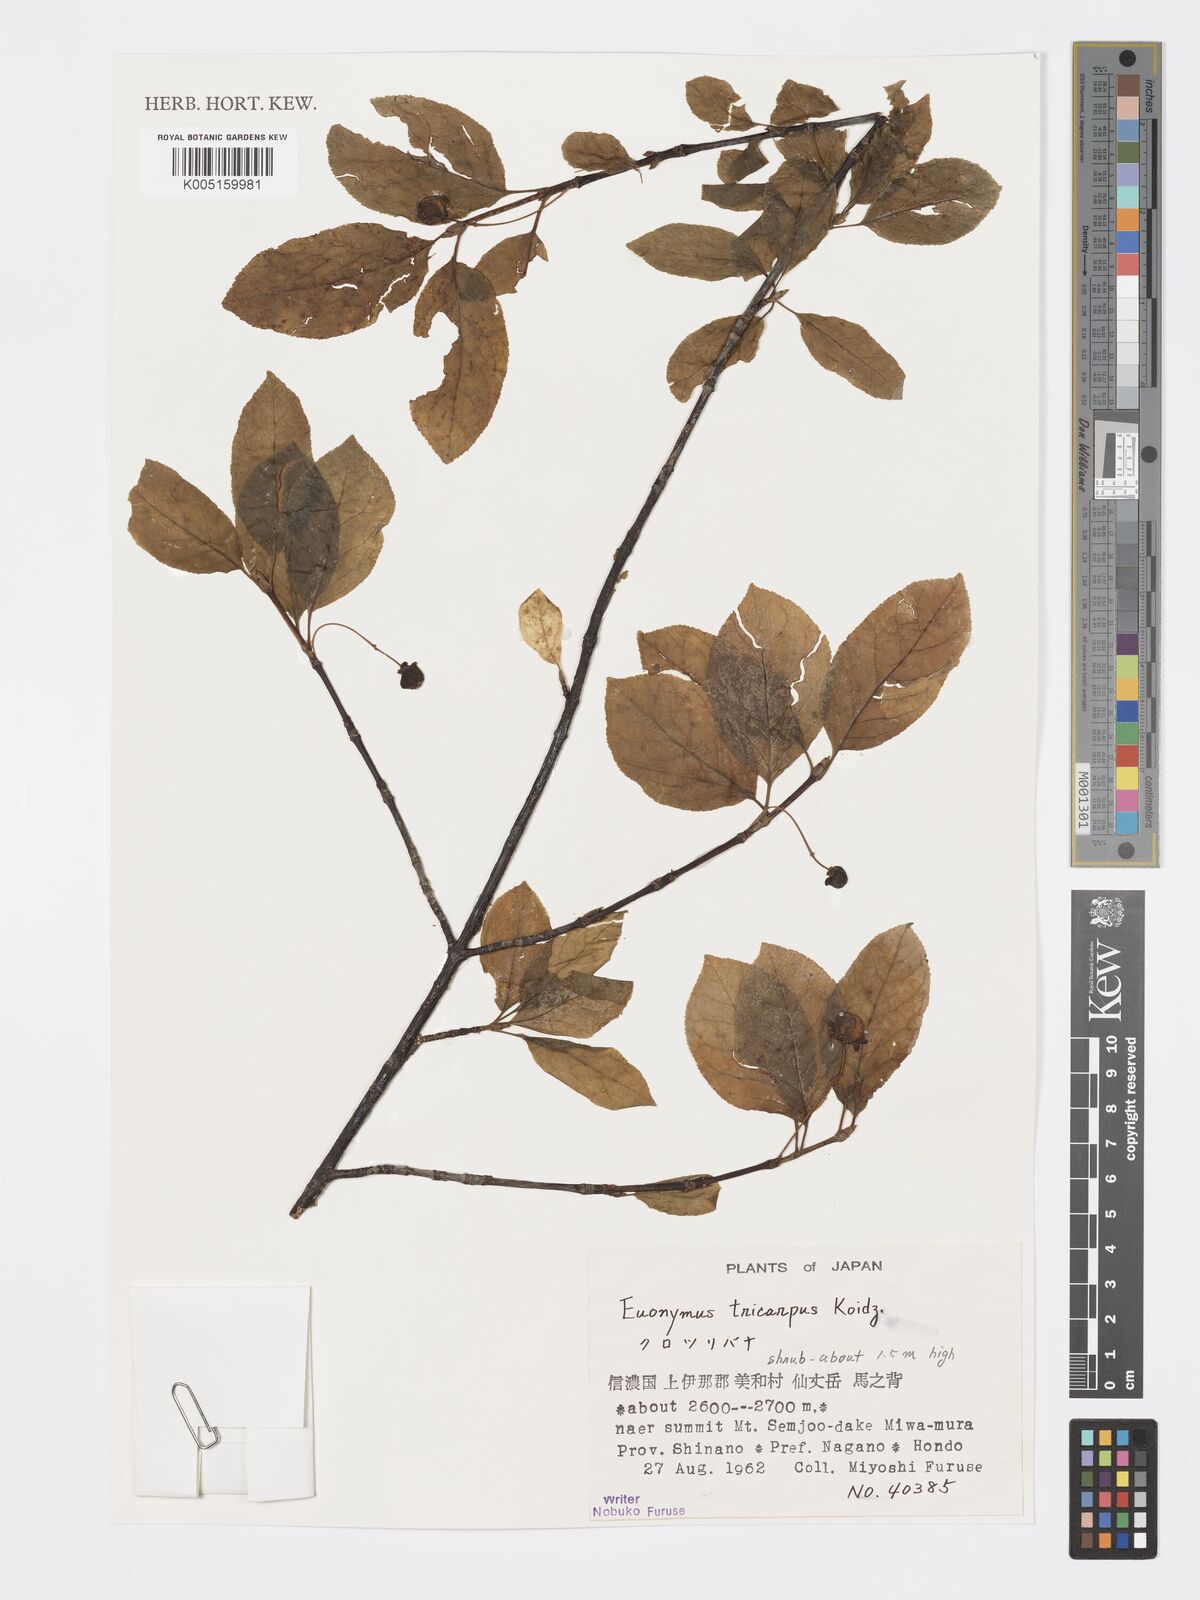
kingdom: Plantae
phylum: Tracheophyta
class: Magnoliopsida
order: Celastrales
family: Celastraceae
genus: Euonymus
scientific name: Euonymus sachalinensis
